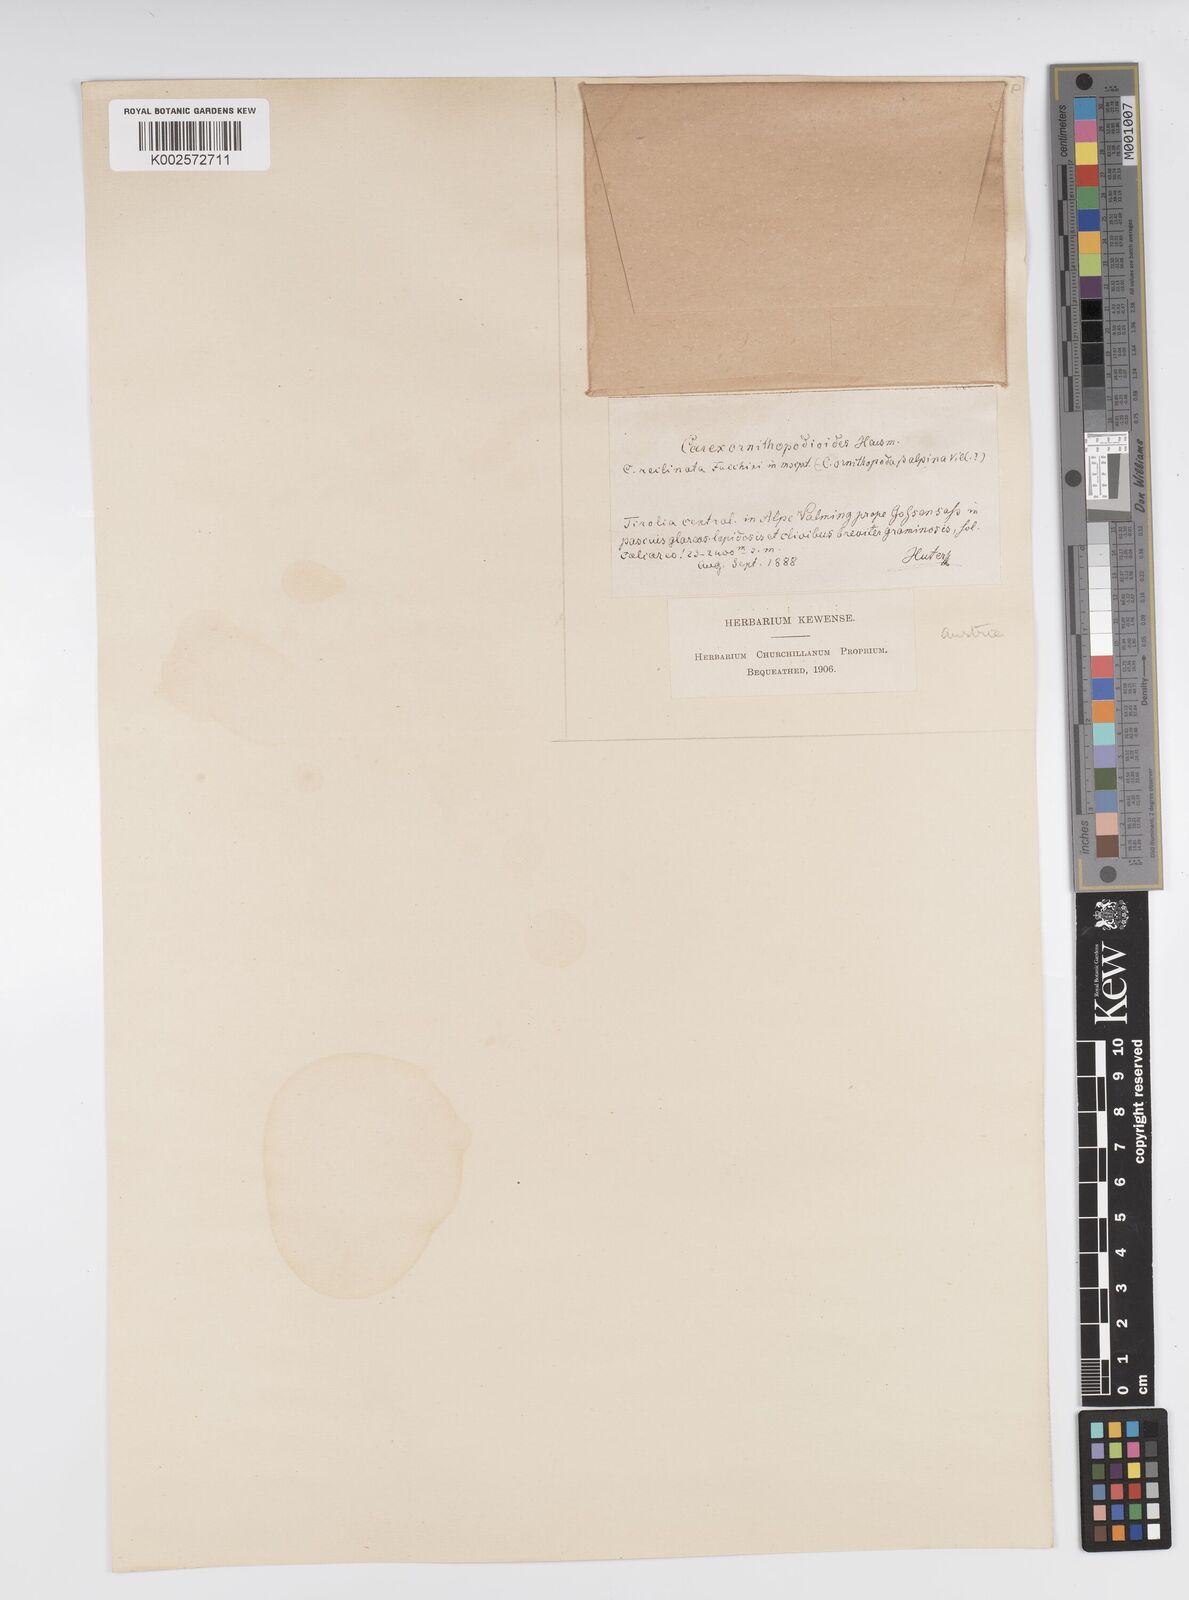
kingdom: Plantae
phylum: Tracheophyta
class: Liliopsida
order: Poales
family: Cyperaceae
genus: Carex
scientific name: Carex ornithopoda
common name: Bird's-foot sedge
